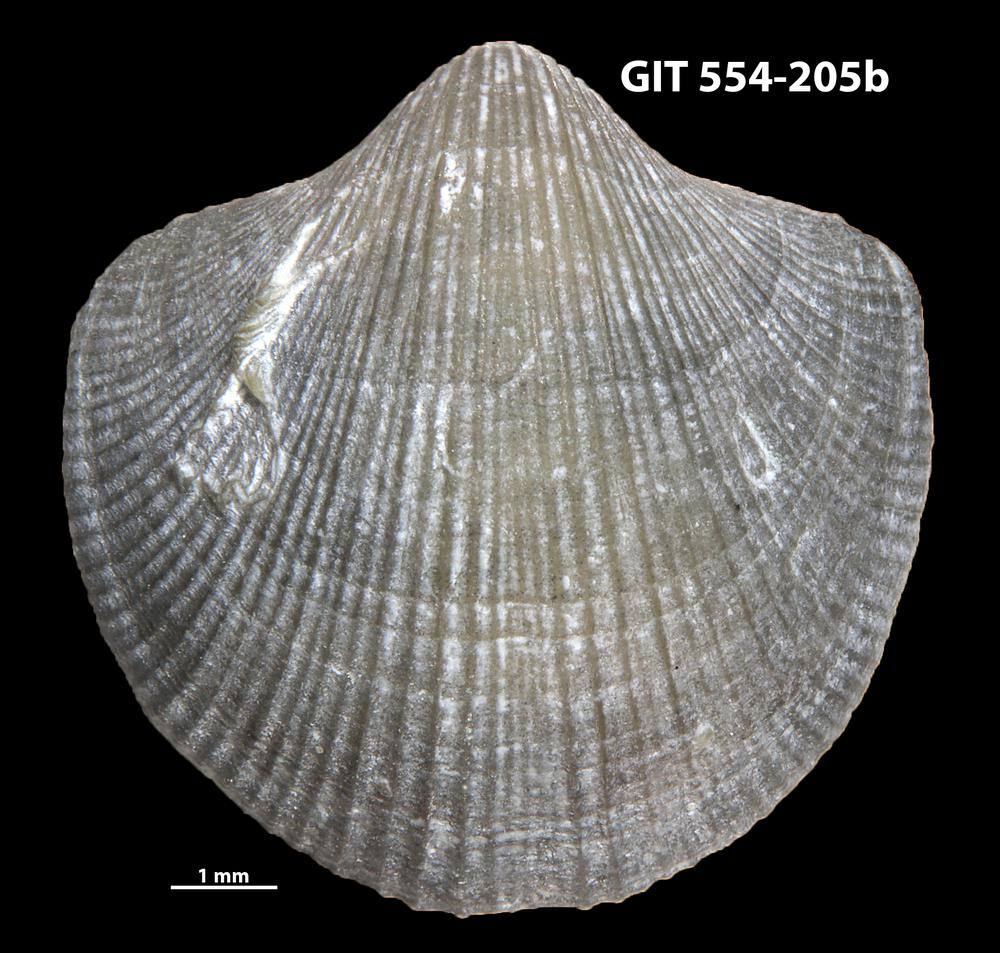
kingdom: Animalia
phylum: Brachiopoda
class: Rhynchonellata
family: Dalmanellidae
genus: Resserella
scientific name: Resserella Orthis canalis
